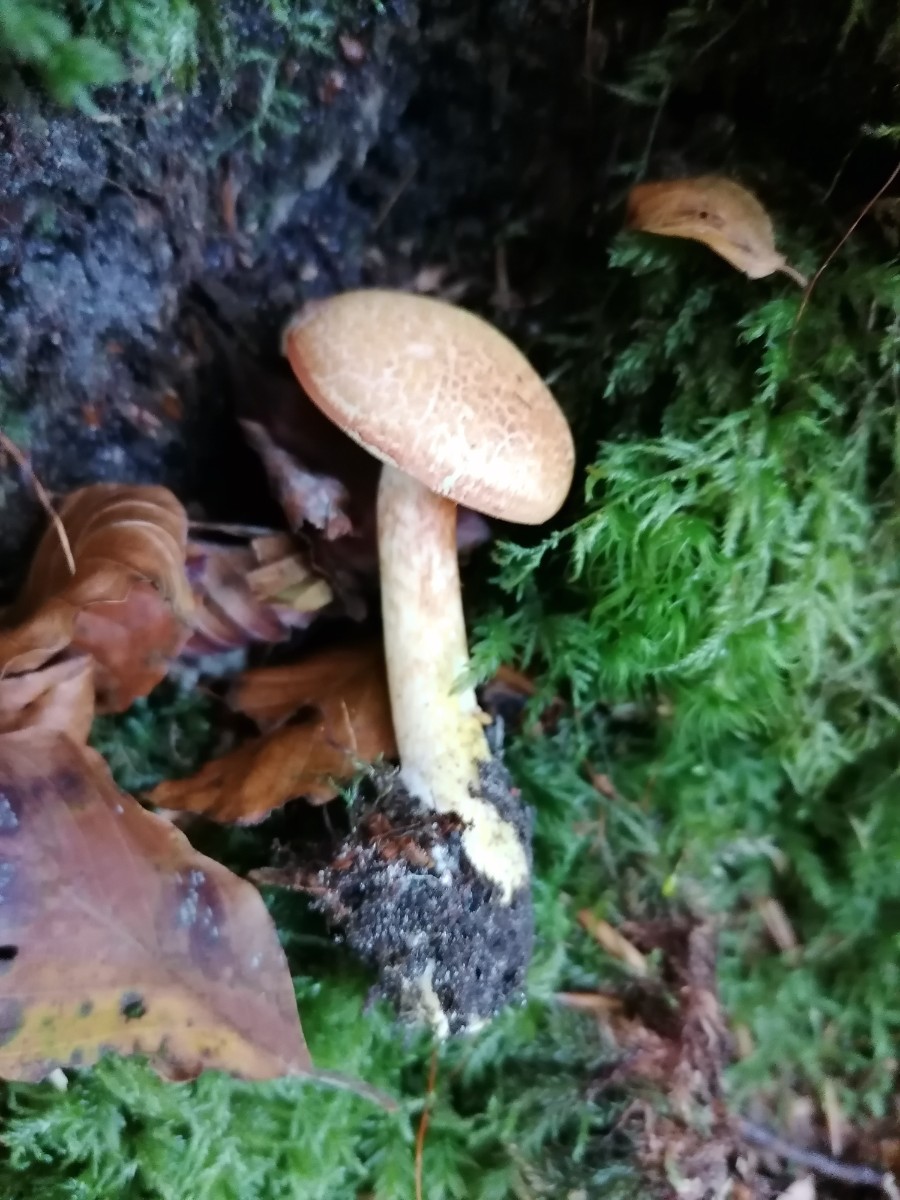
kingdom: Fungi
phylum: Basidiomycota
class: Agaricomycetes
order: Agaricales
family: Cortinariaceae
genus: Cortinarius
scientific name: Cortinarius bolaris
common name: cinnoberskællet slørhat
